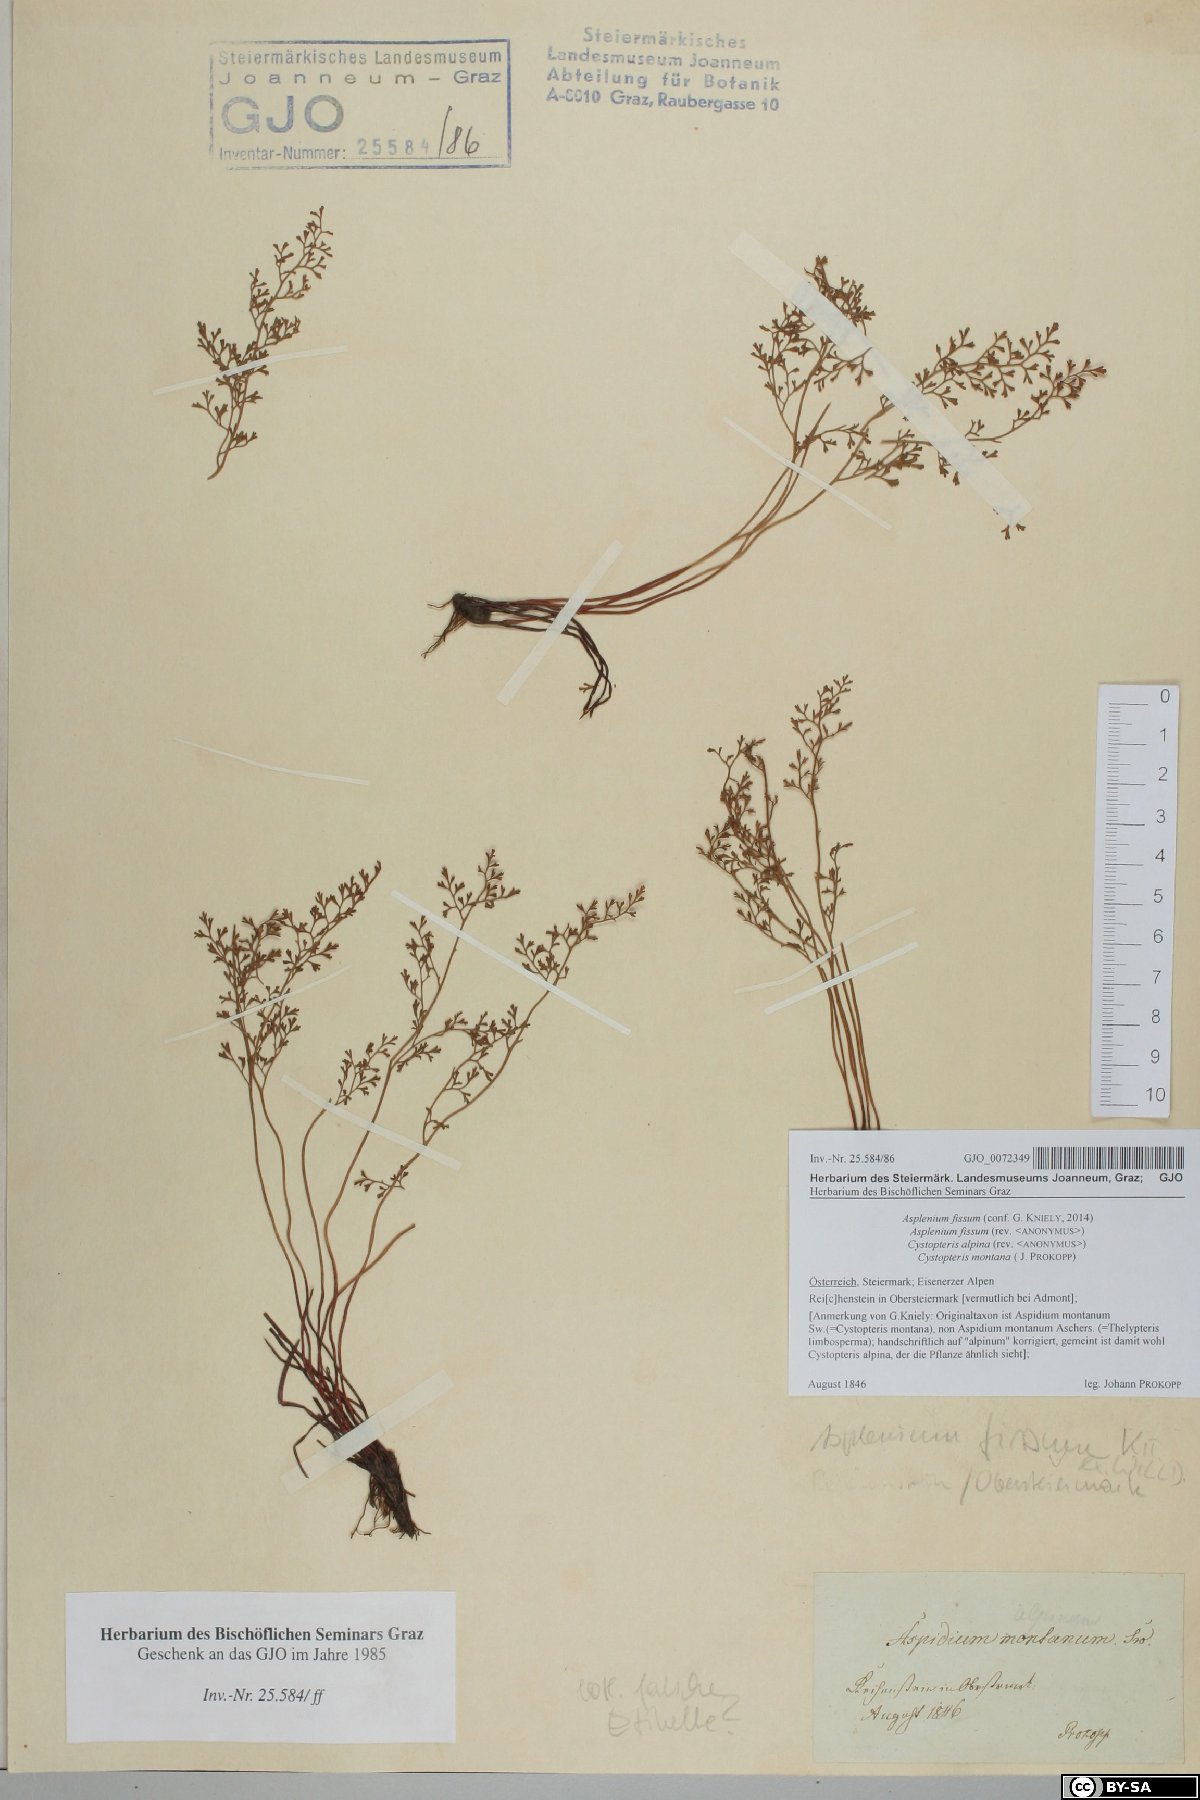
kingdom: Plantae
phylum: Tracheophyta
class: Polypodiopsida
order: Polypodiales
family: Aspleniaceae
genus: Asplenium
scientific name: Asplenium fissum
